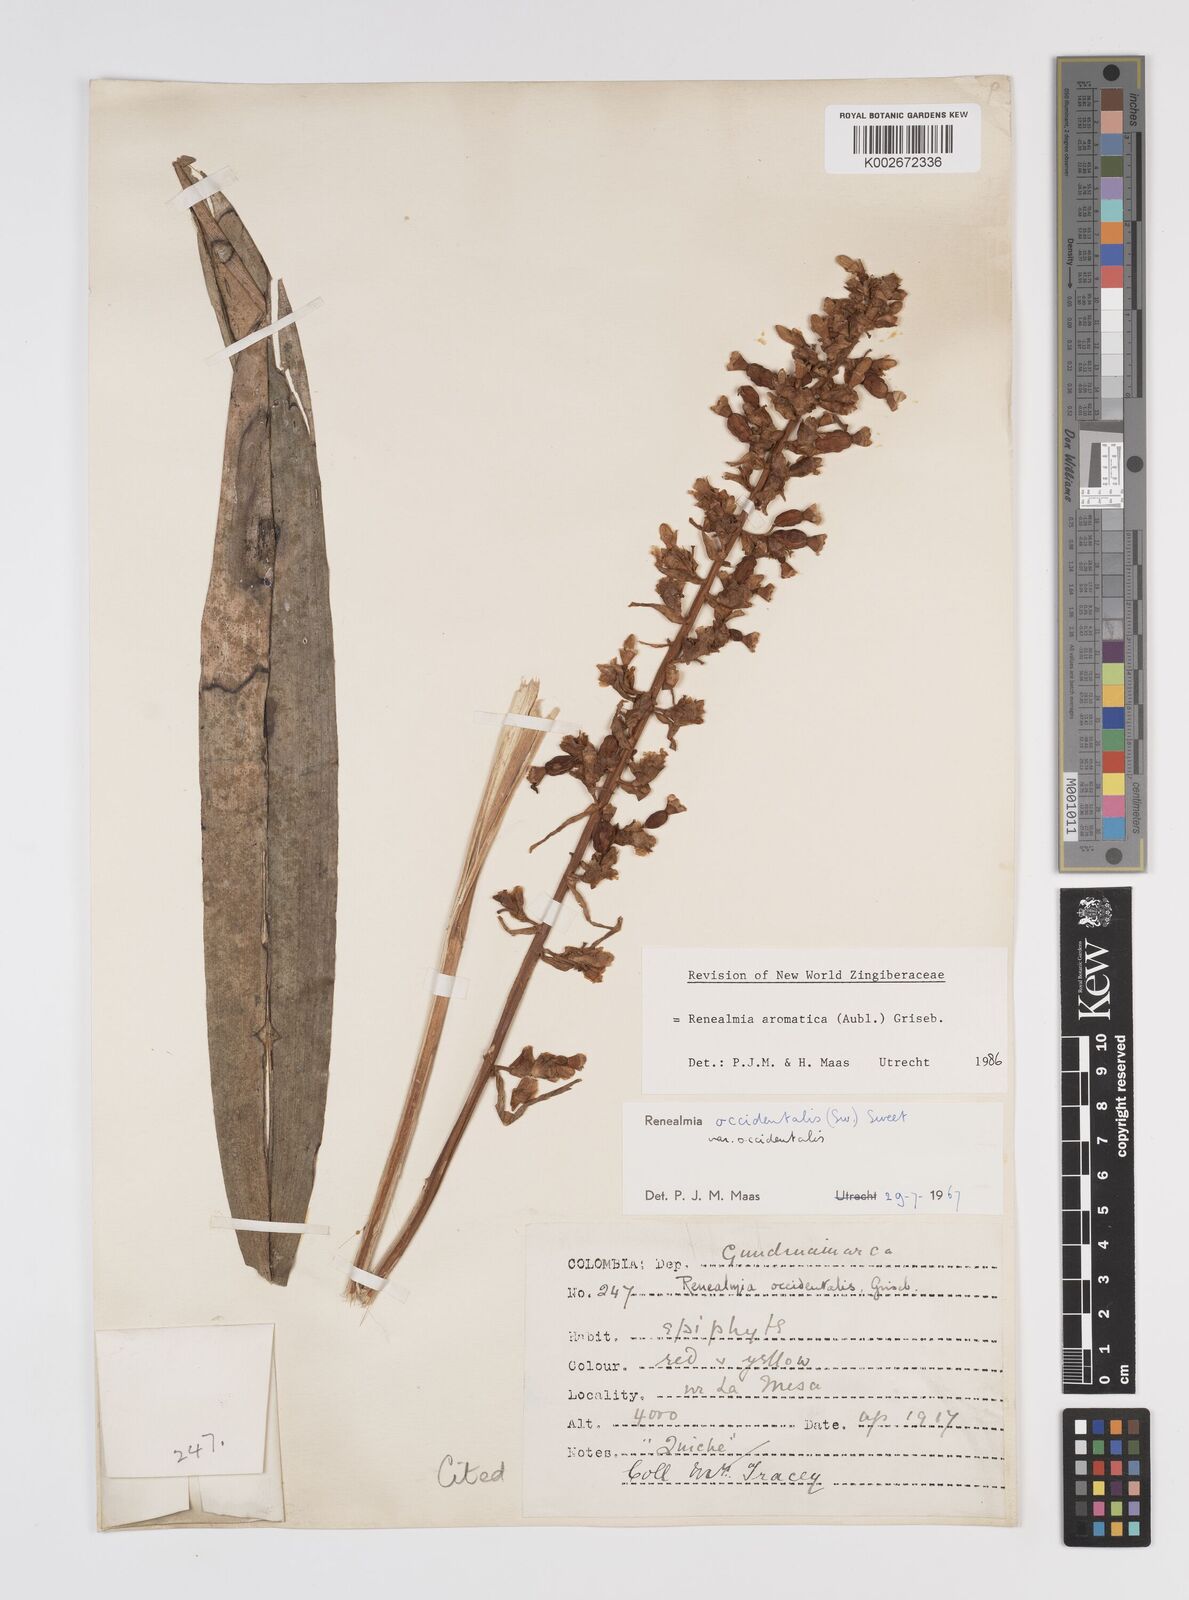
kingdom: Plantae
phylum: Tracheophyta
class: Liliopsida
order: Zingiberales
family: Zingiberaceae
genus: Renealmia
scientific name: Renealmia aromatica
